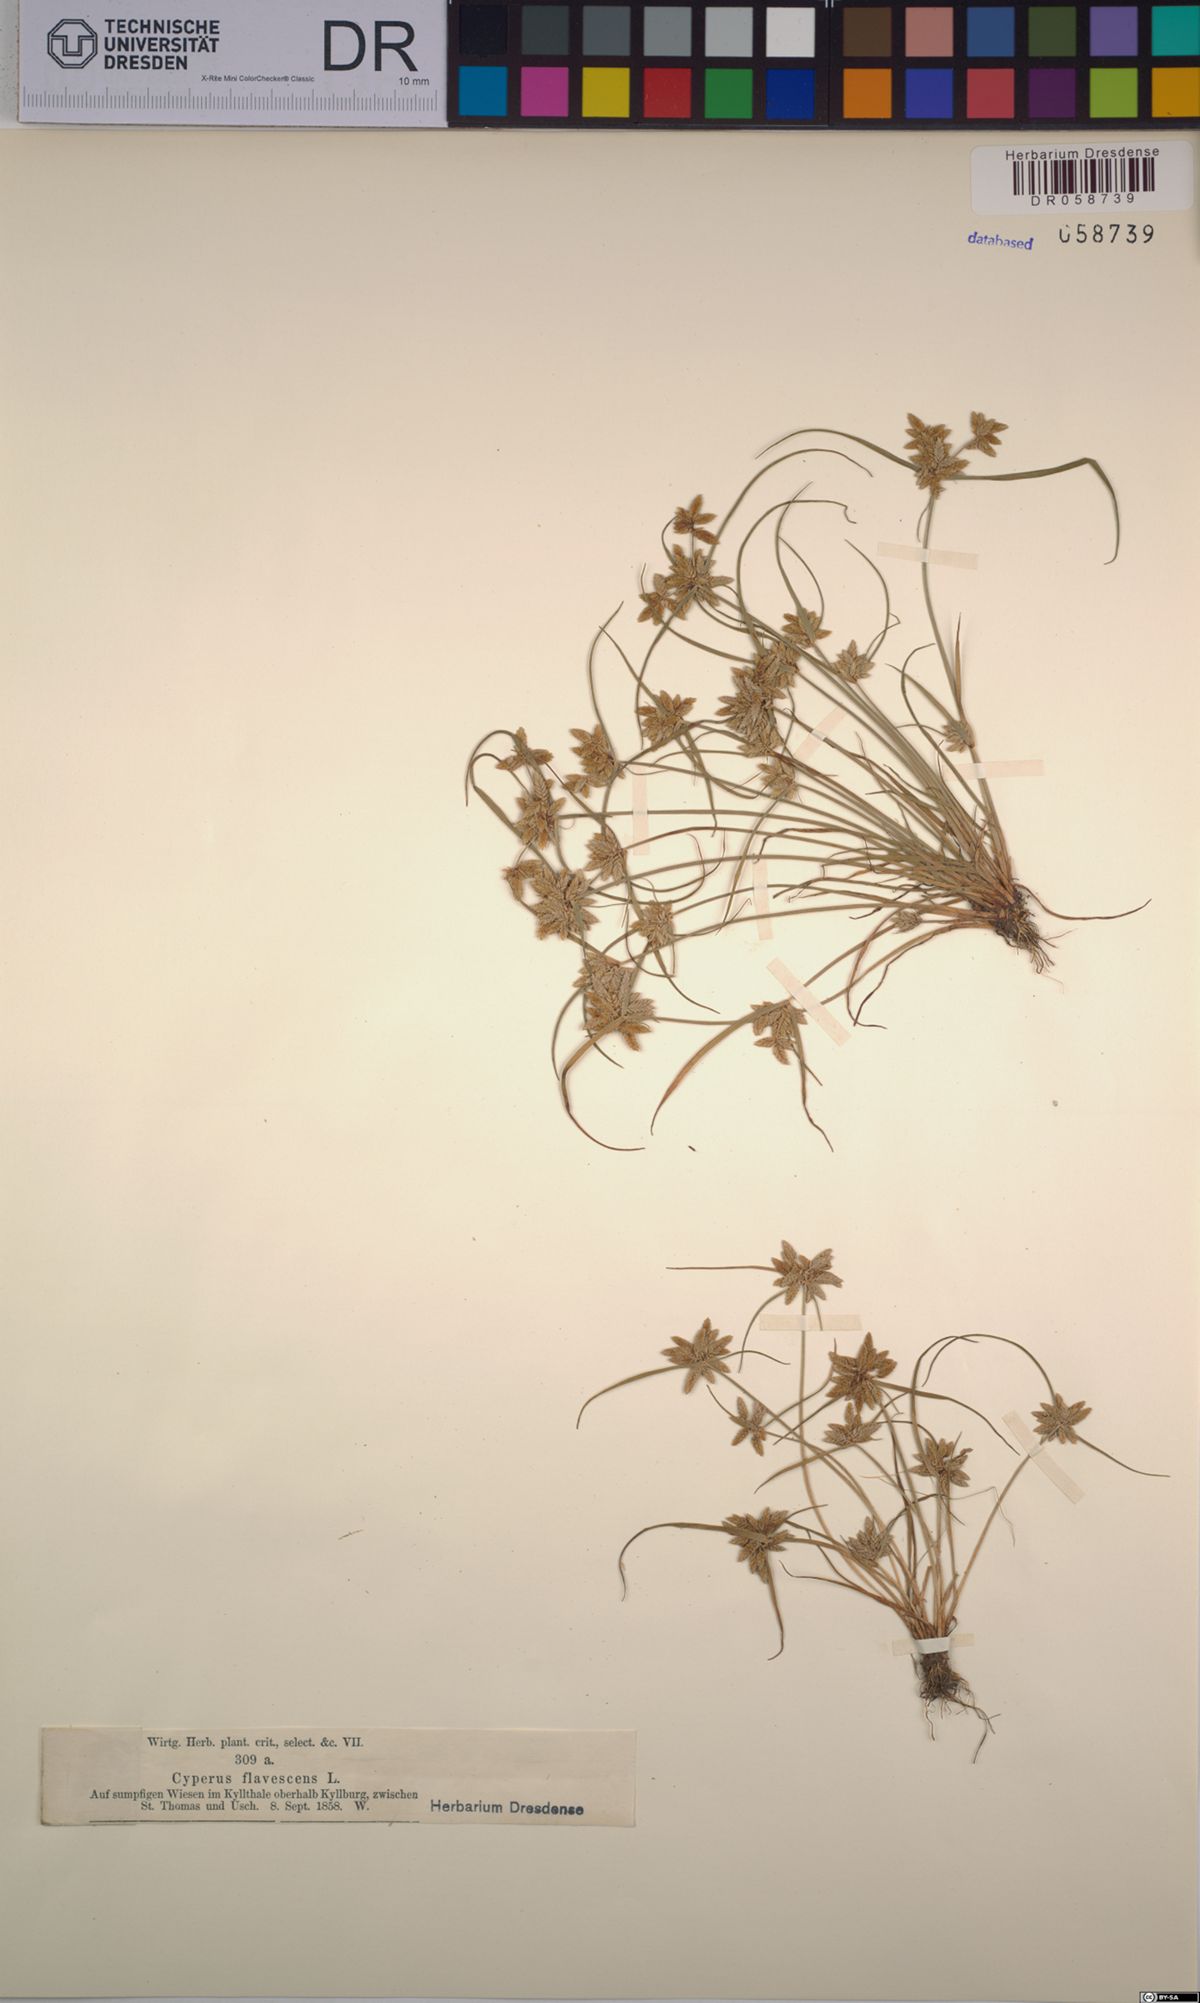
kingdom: Plantae
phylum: Tracheophyta
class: Liliopsida
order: Poales
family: Cyperaceae
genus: Cyperus
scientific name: Cyperus flavescens
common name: Yellow galingale
